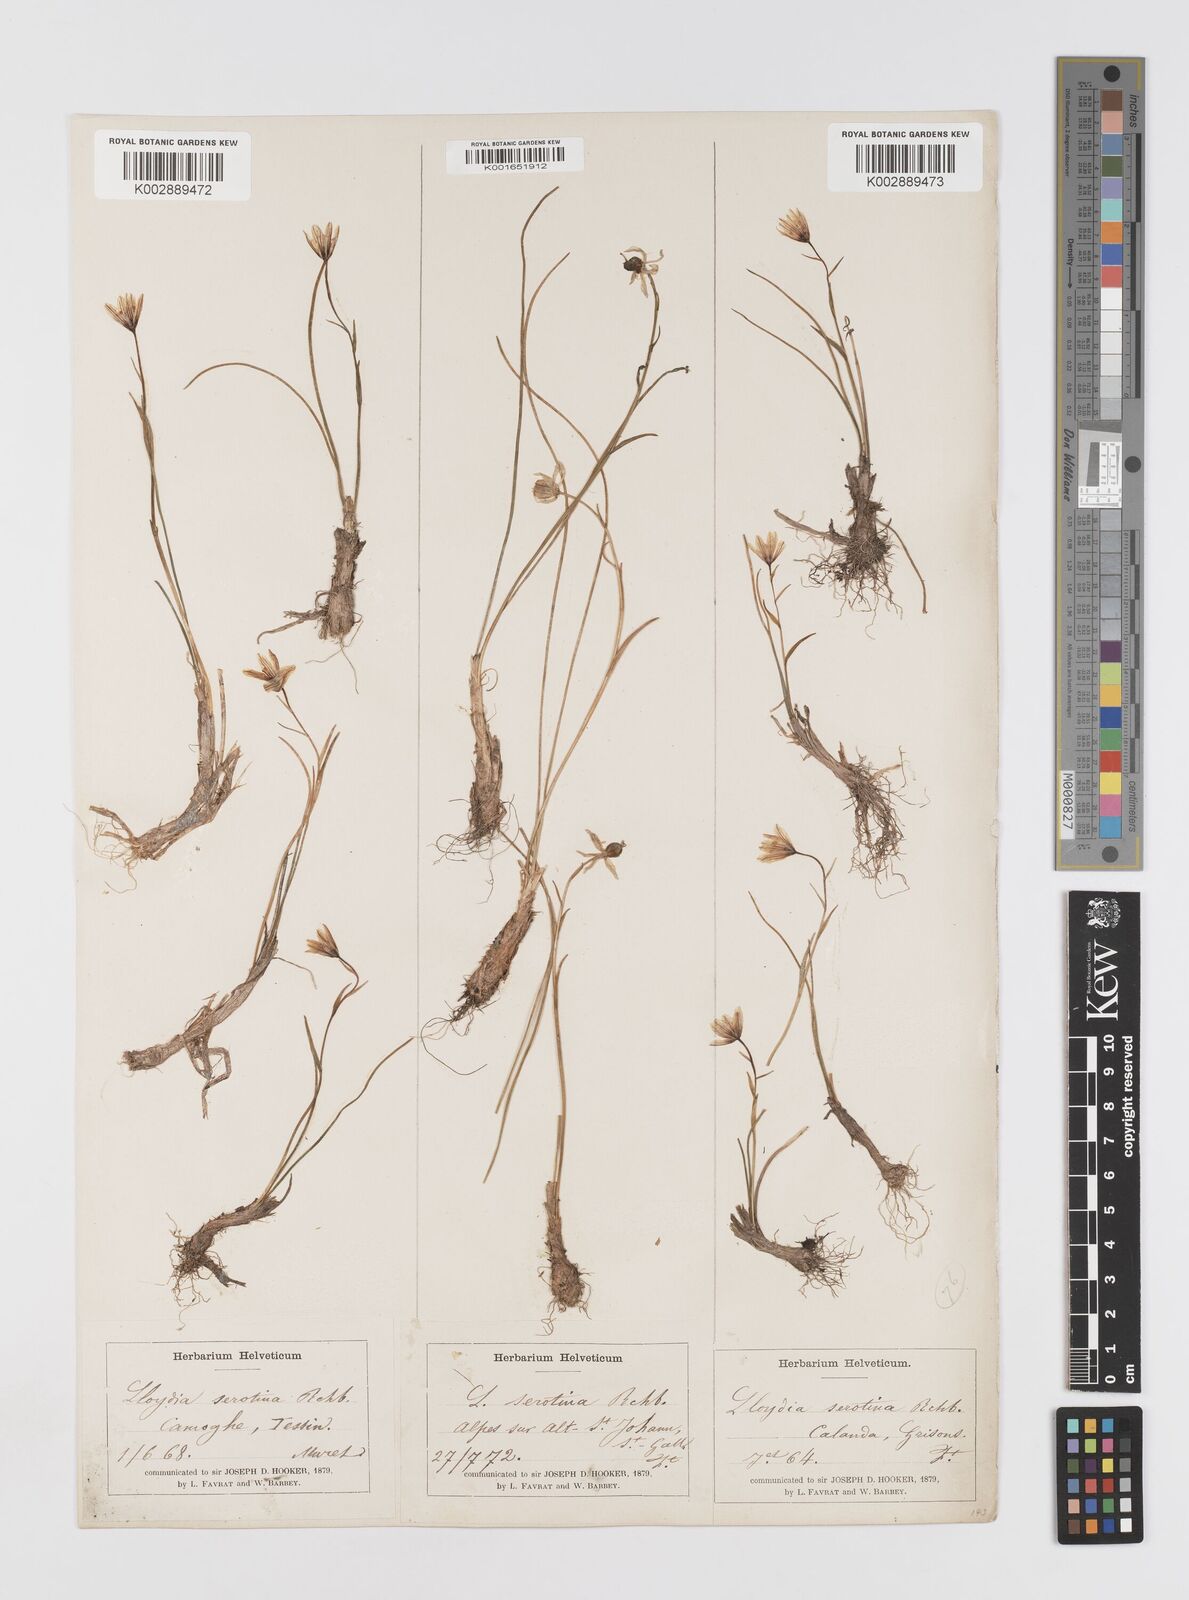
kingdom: Plantae
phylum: Tracheophyta
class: Liliopsida
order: Liliales
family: Liliaceae
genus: Gagea
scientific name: Gagea
